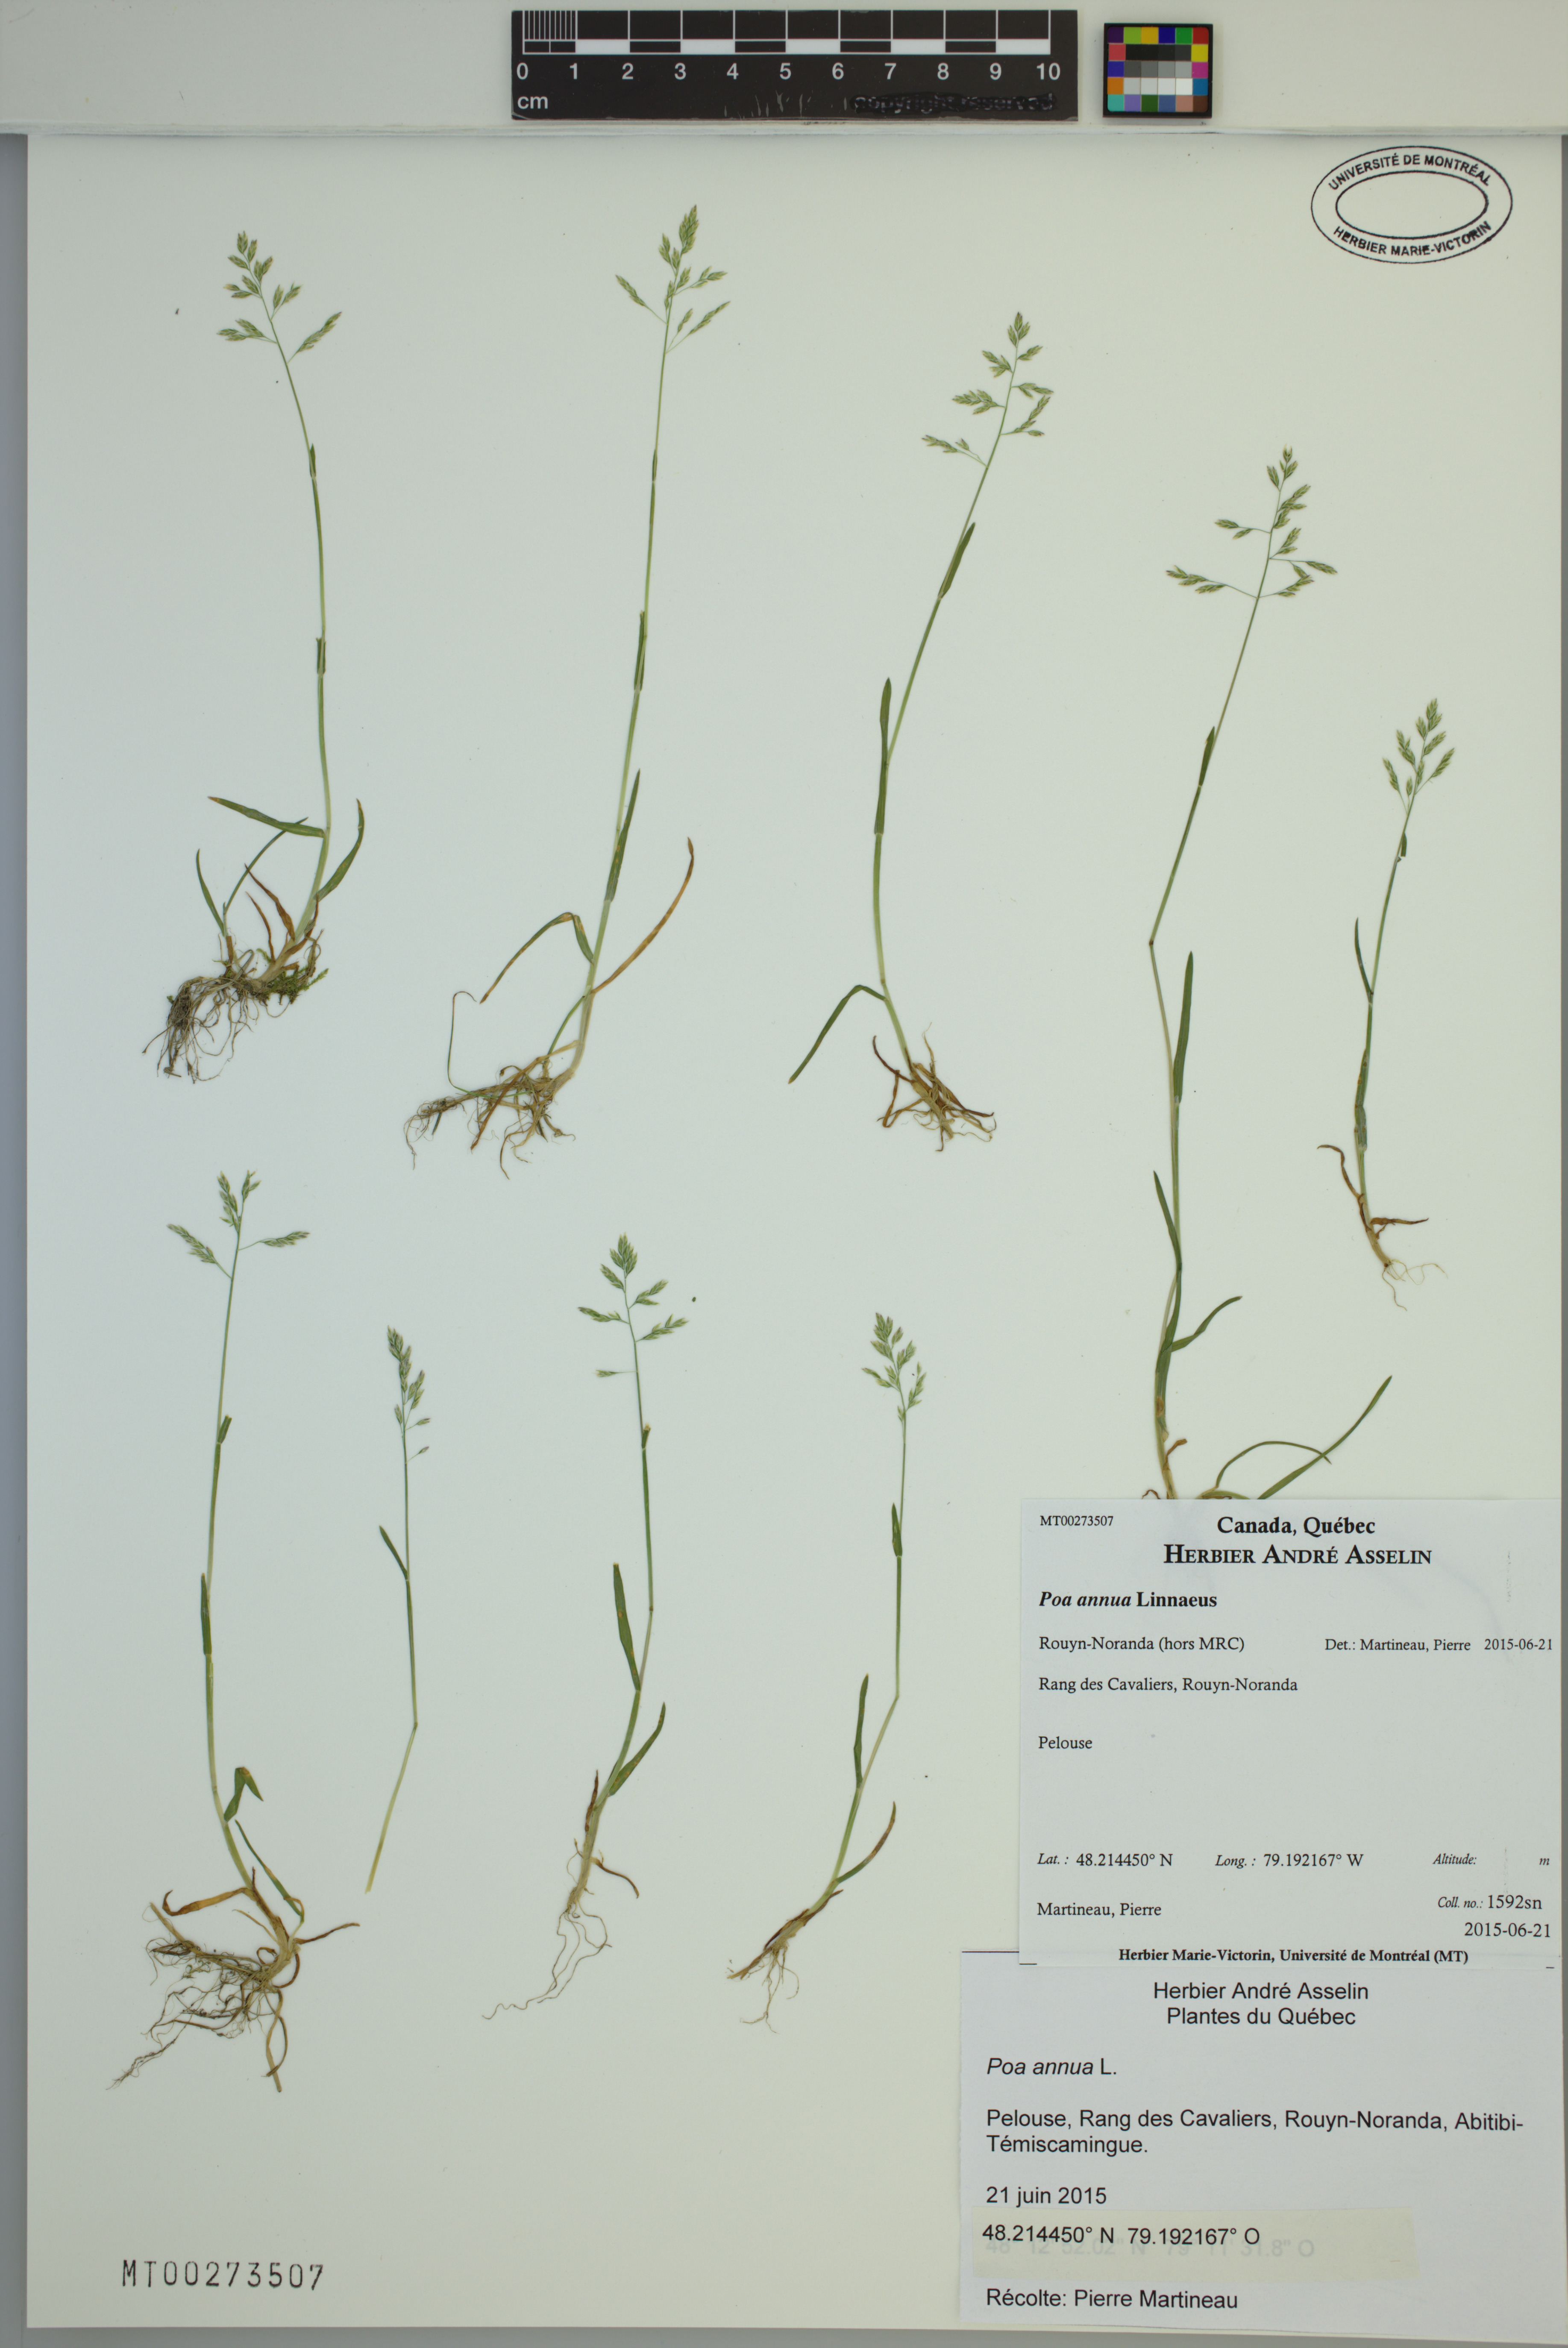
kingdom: Plantae
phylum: Tracheophyta
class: Liliopsida
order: Poales
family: Poaceae
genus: Poa
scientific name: Poa annua
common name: Annual bluegrass
